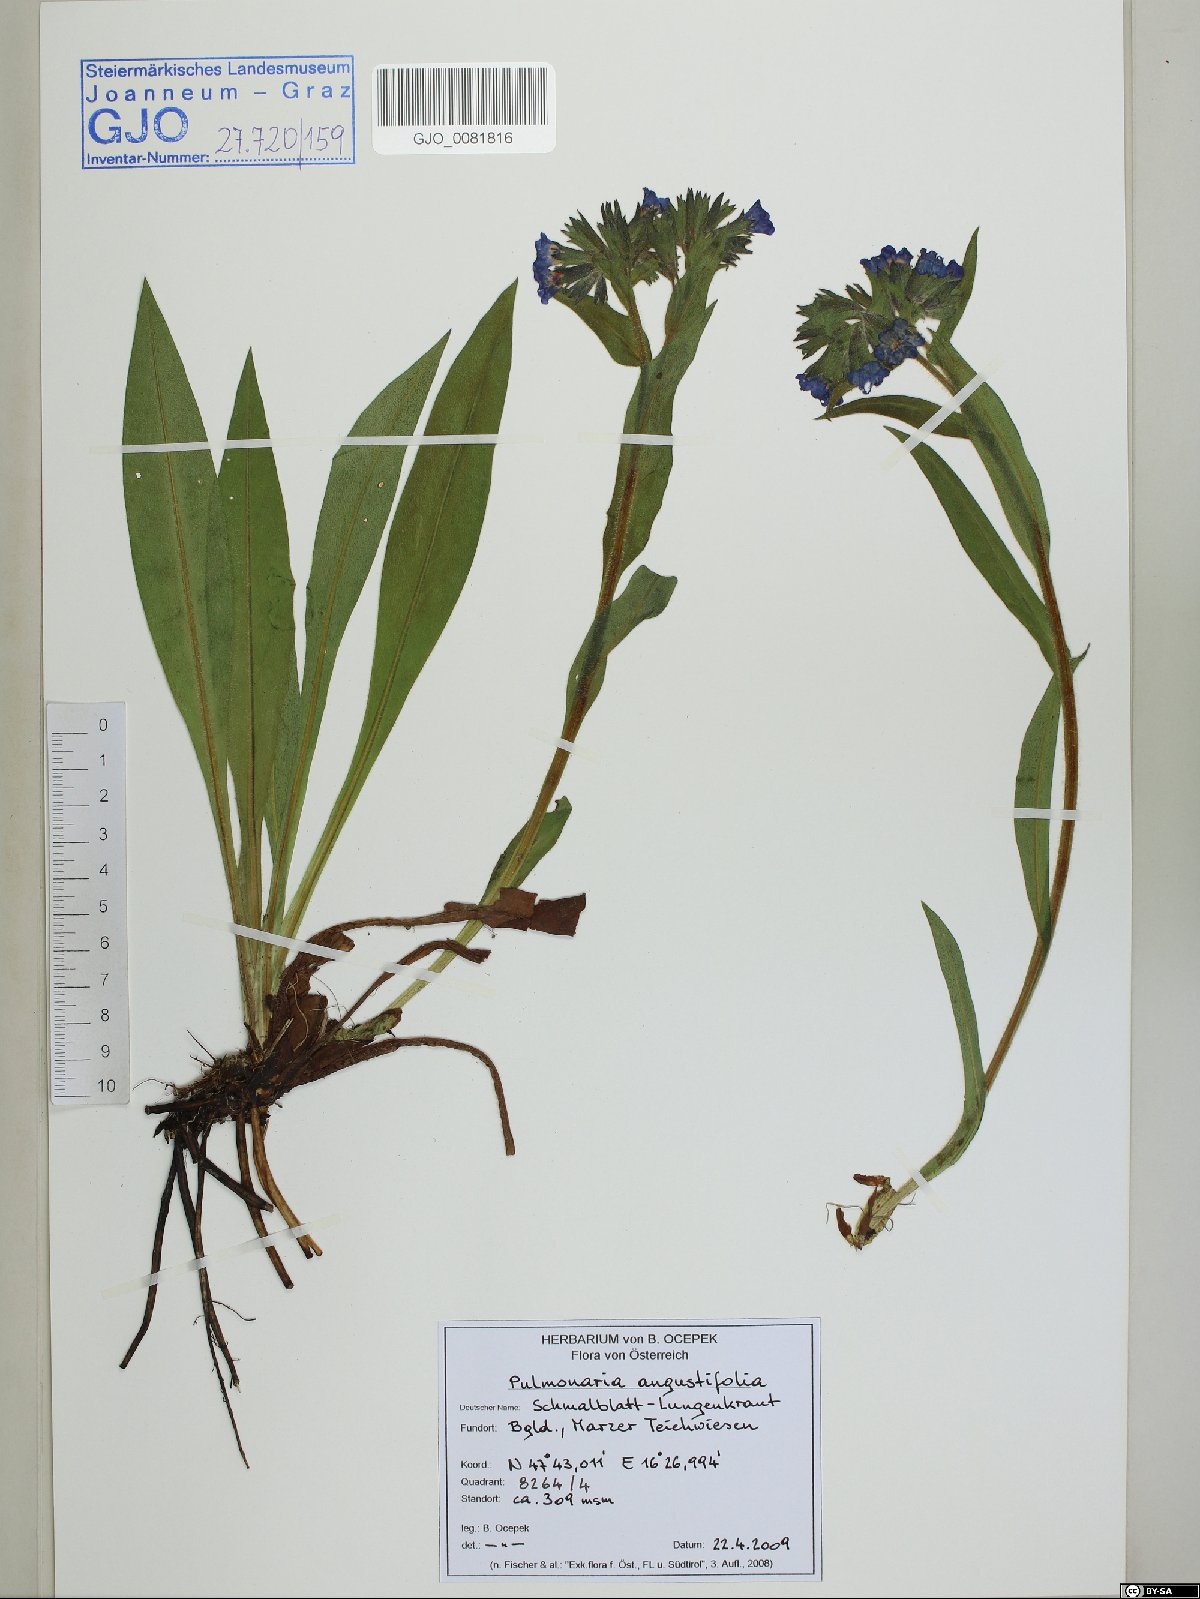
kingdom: Plantae
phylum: Tracheophyta
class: Magnoliopsida
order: Boraginales
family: Boraginaceae
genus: Pulmonaria
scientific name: Pulmonaria angustifolia
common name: Blue cowslip
